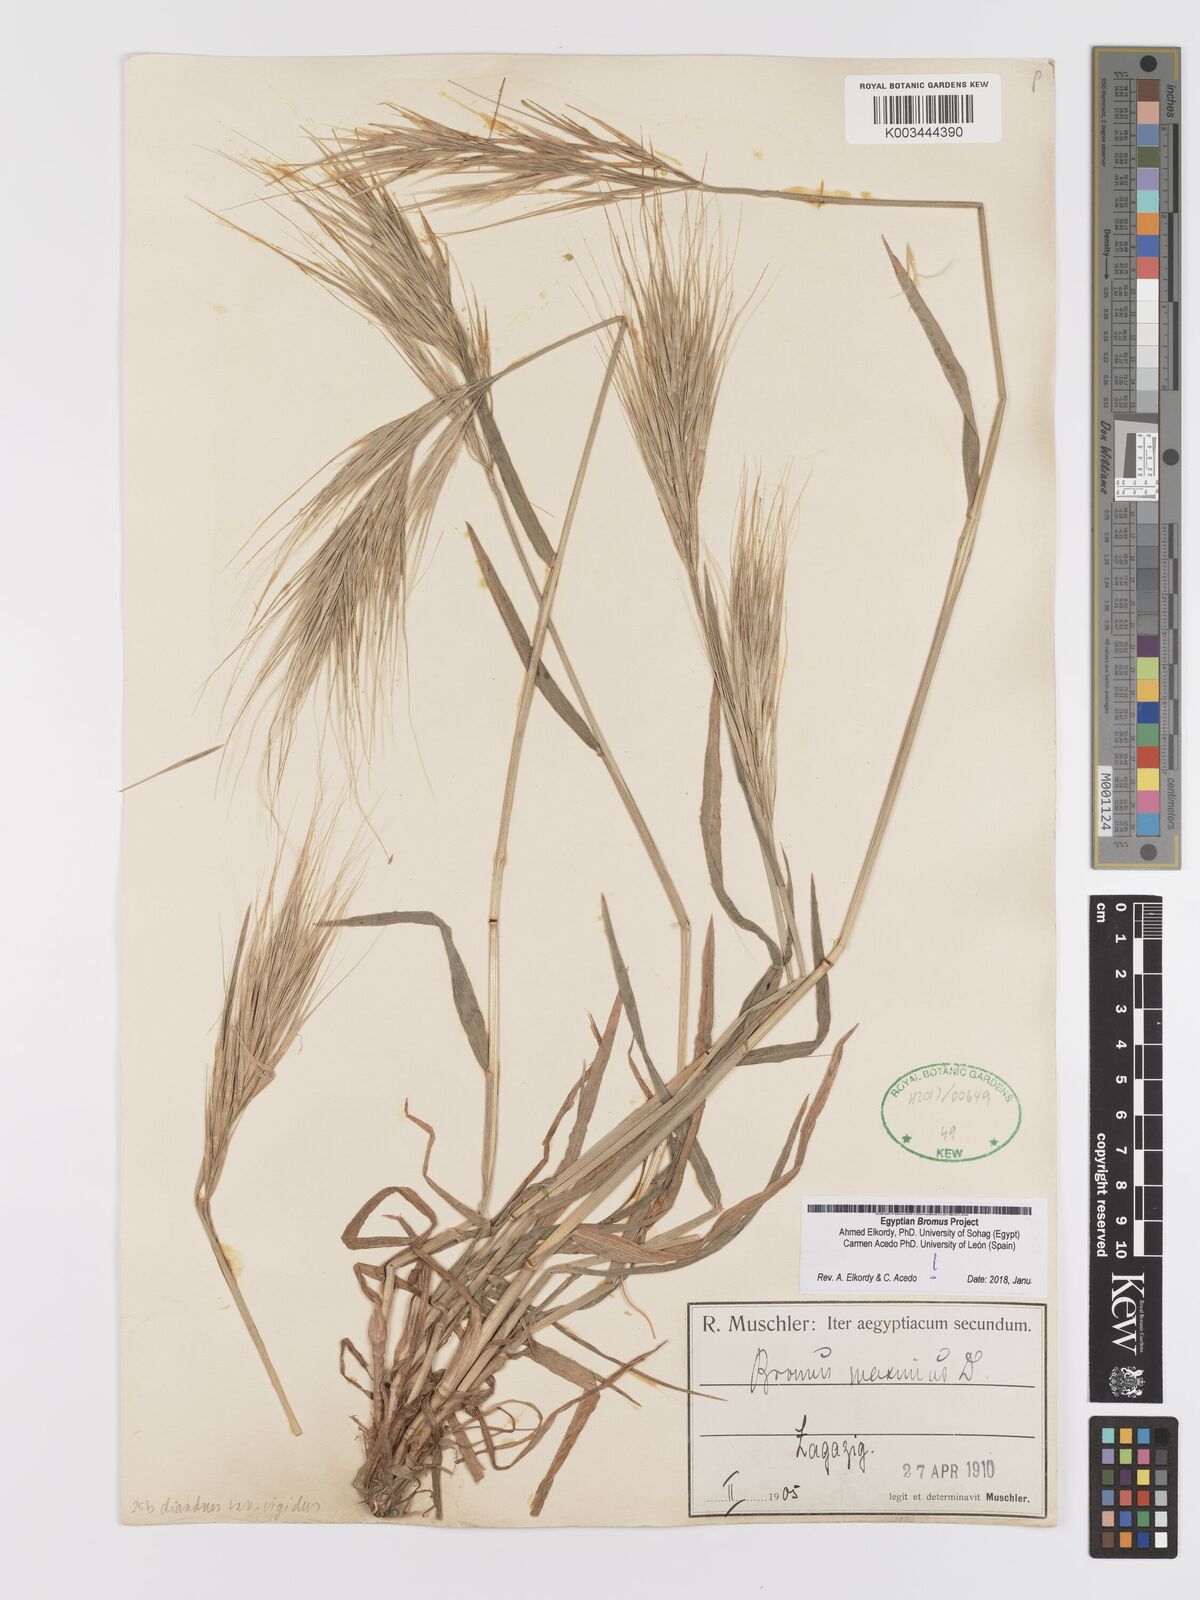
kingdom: Plantae
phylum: Tracheophyta
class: Liliopsida
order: Poales
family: Poaceae
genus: Bromus
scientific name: Bromus
